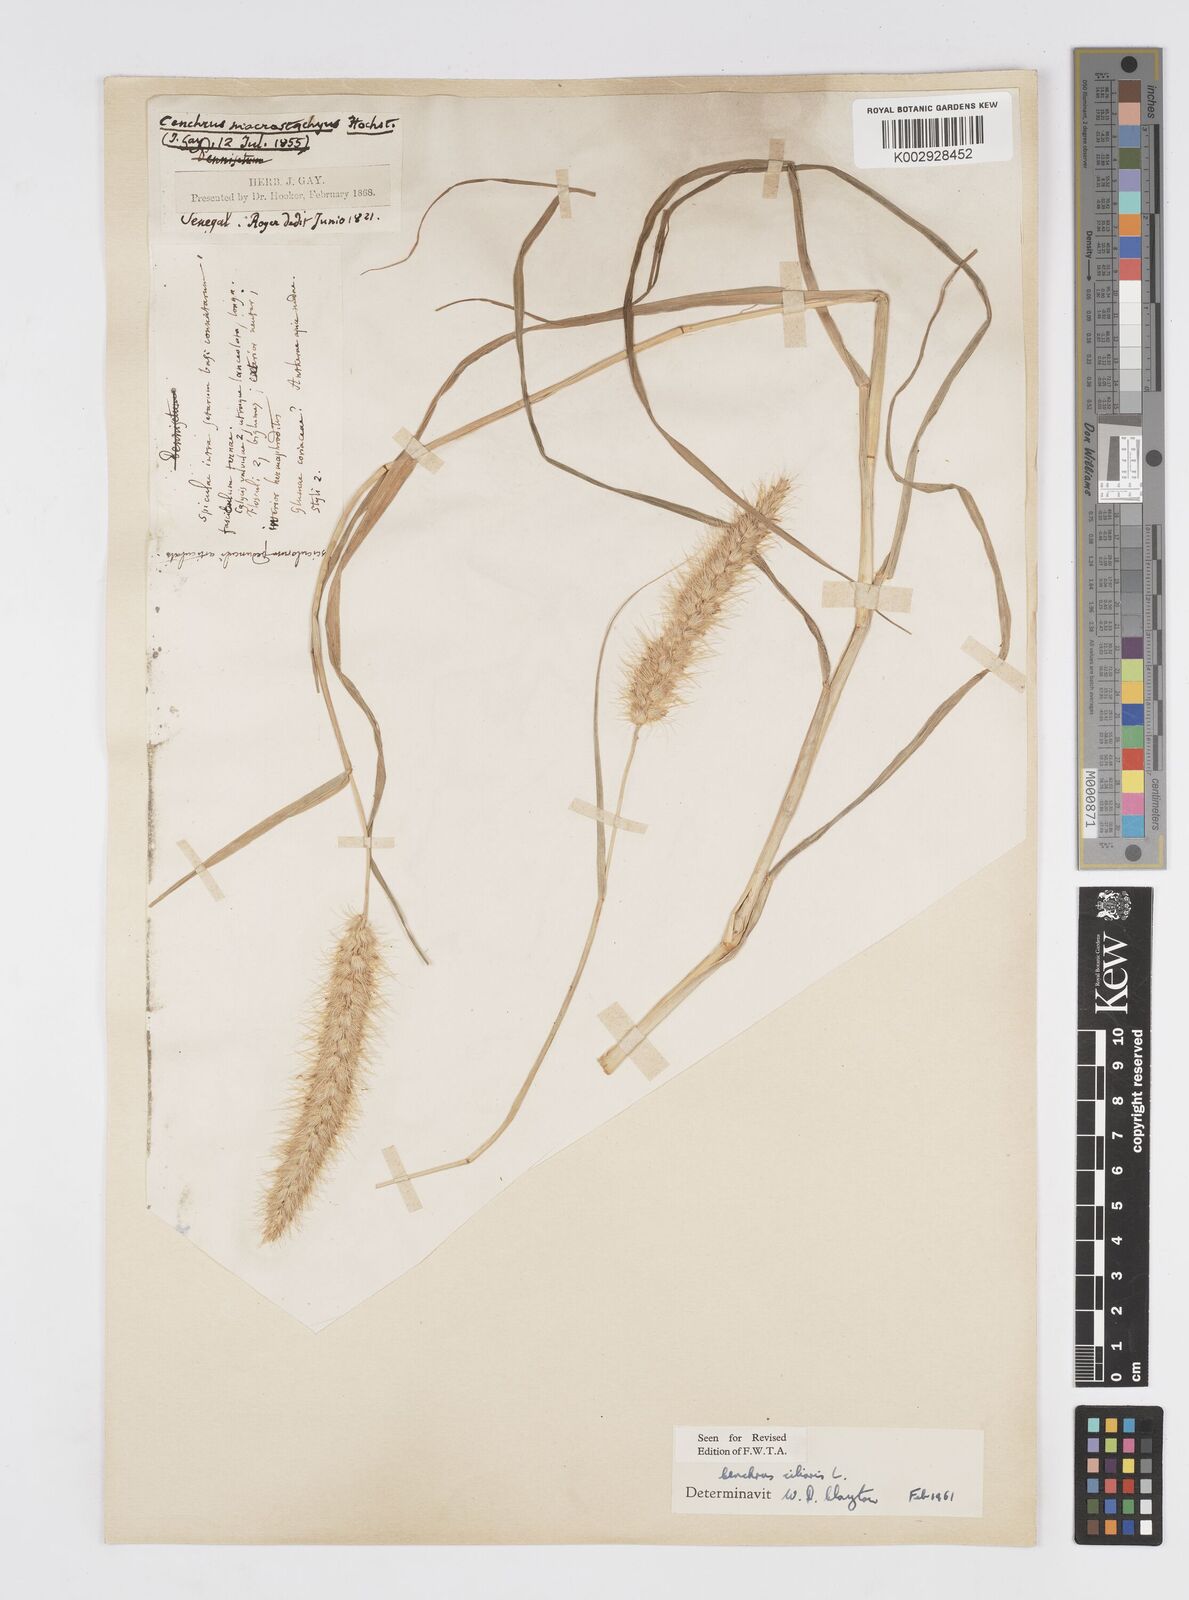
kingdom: Plantae
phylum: Tracheophyta
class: Liliopsida
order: Poales
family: Poaceae
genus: Cenchrus
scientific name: Cenchrus ciliaris
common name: Buffelgrass
